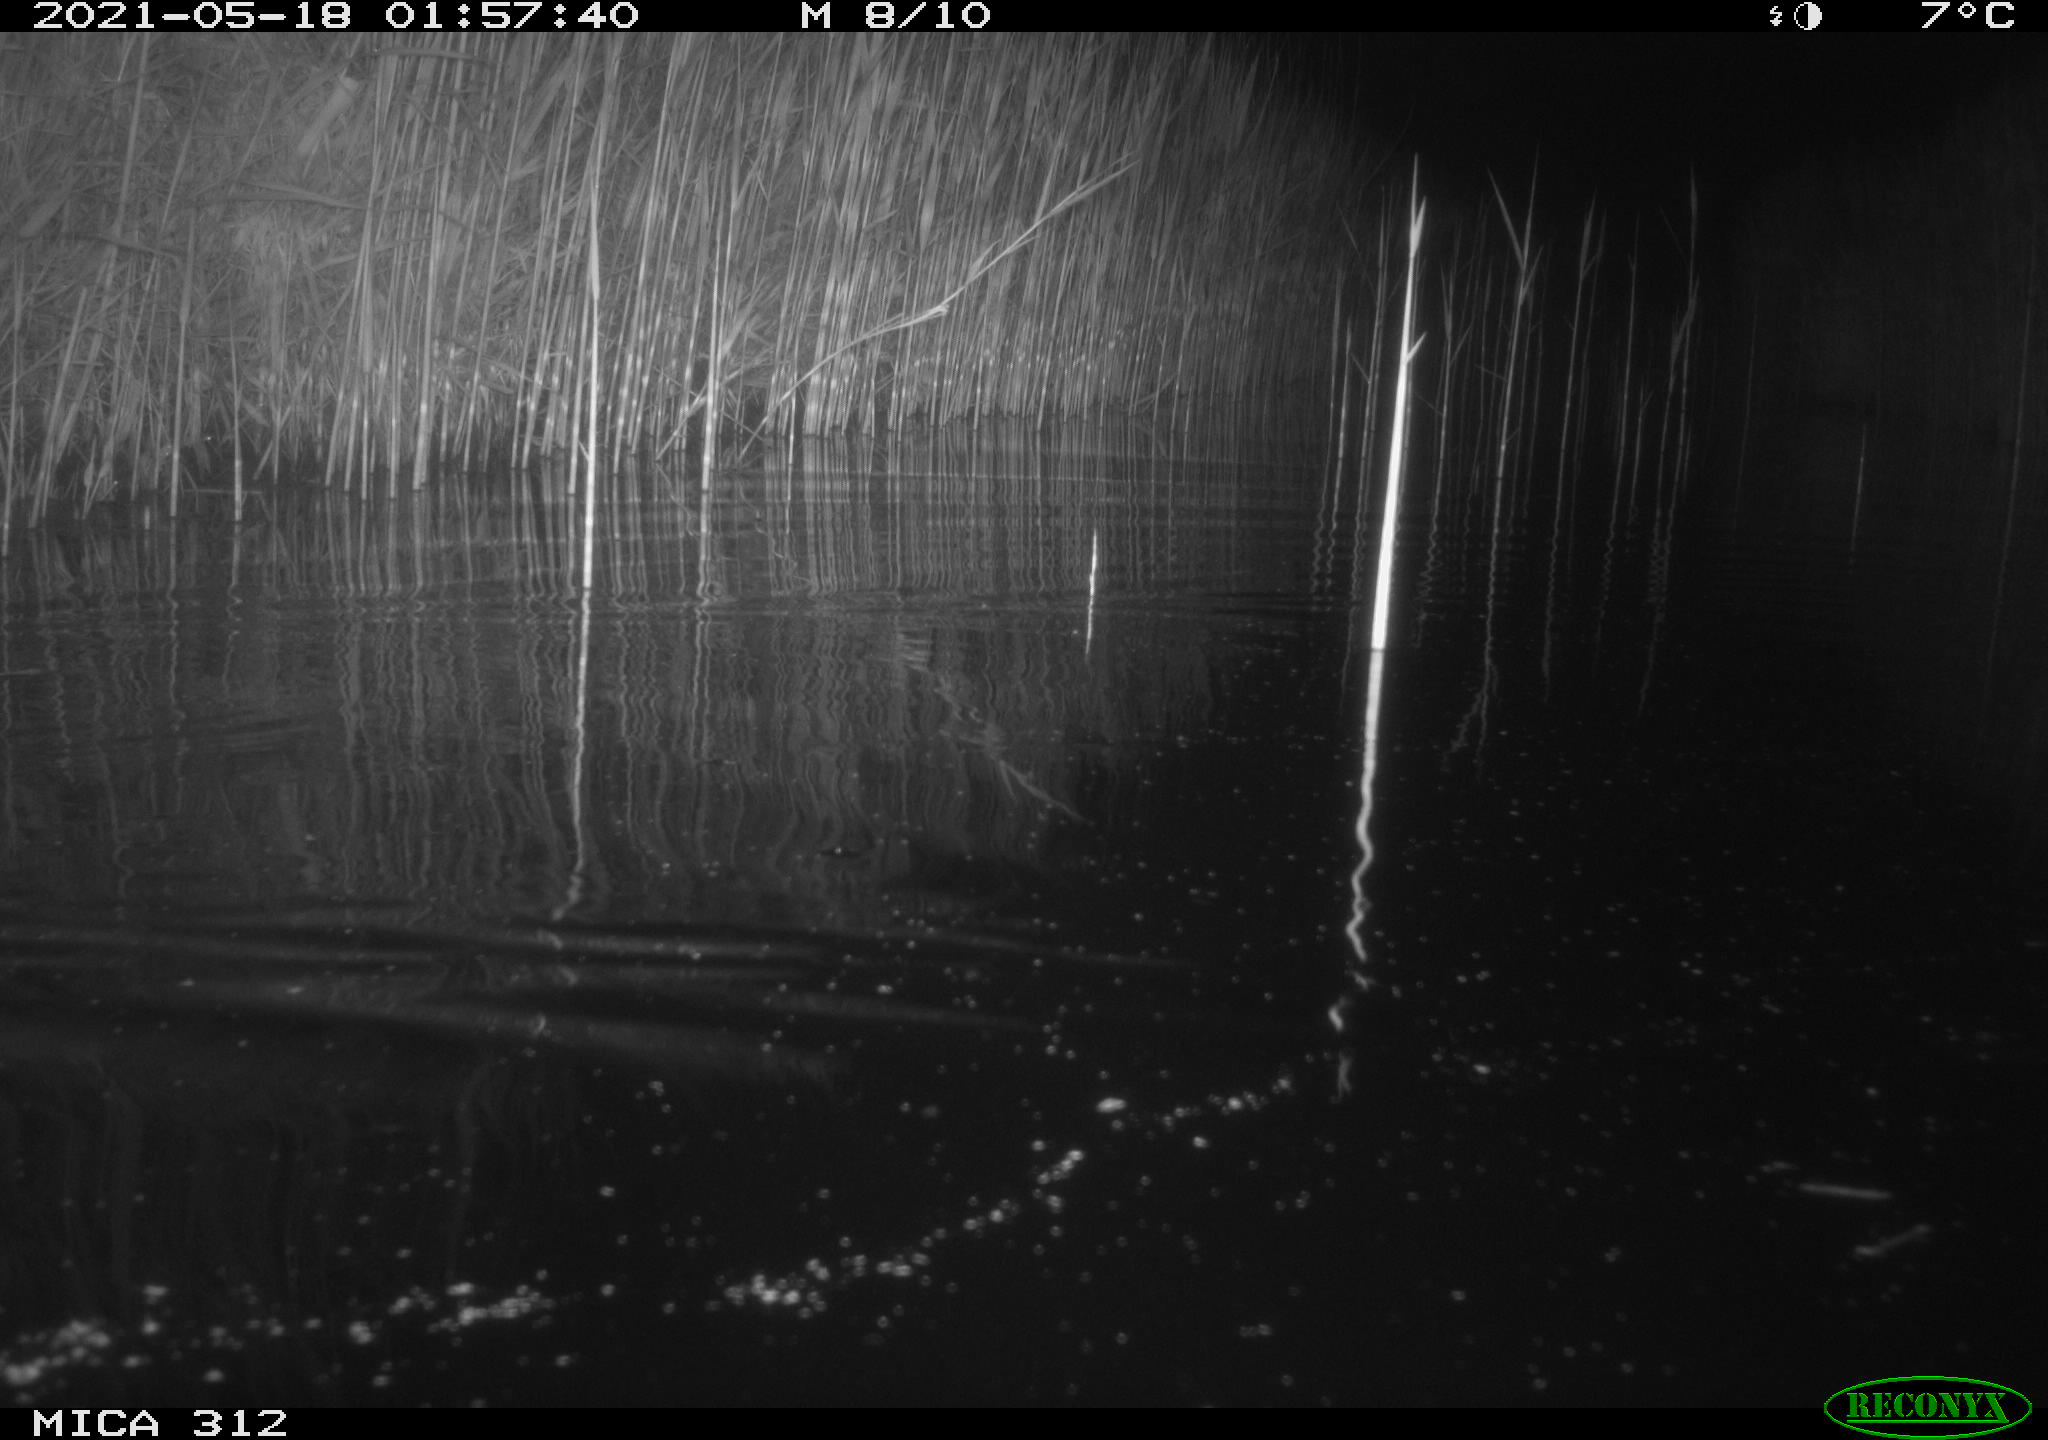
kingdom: Animalia
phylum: Chordata
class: Mammalia
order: Rodentia
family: Muridae
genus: Rattus
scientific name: Rattus norvegicus
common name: Brown rat
